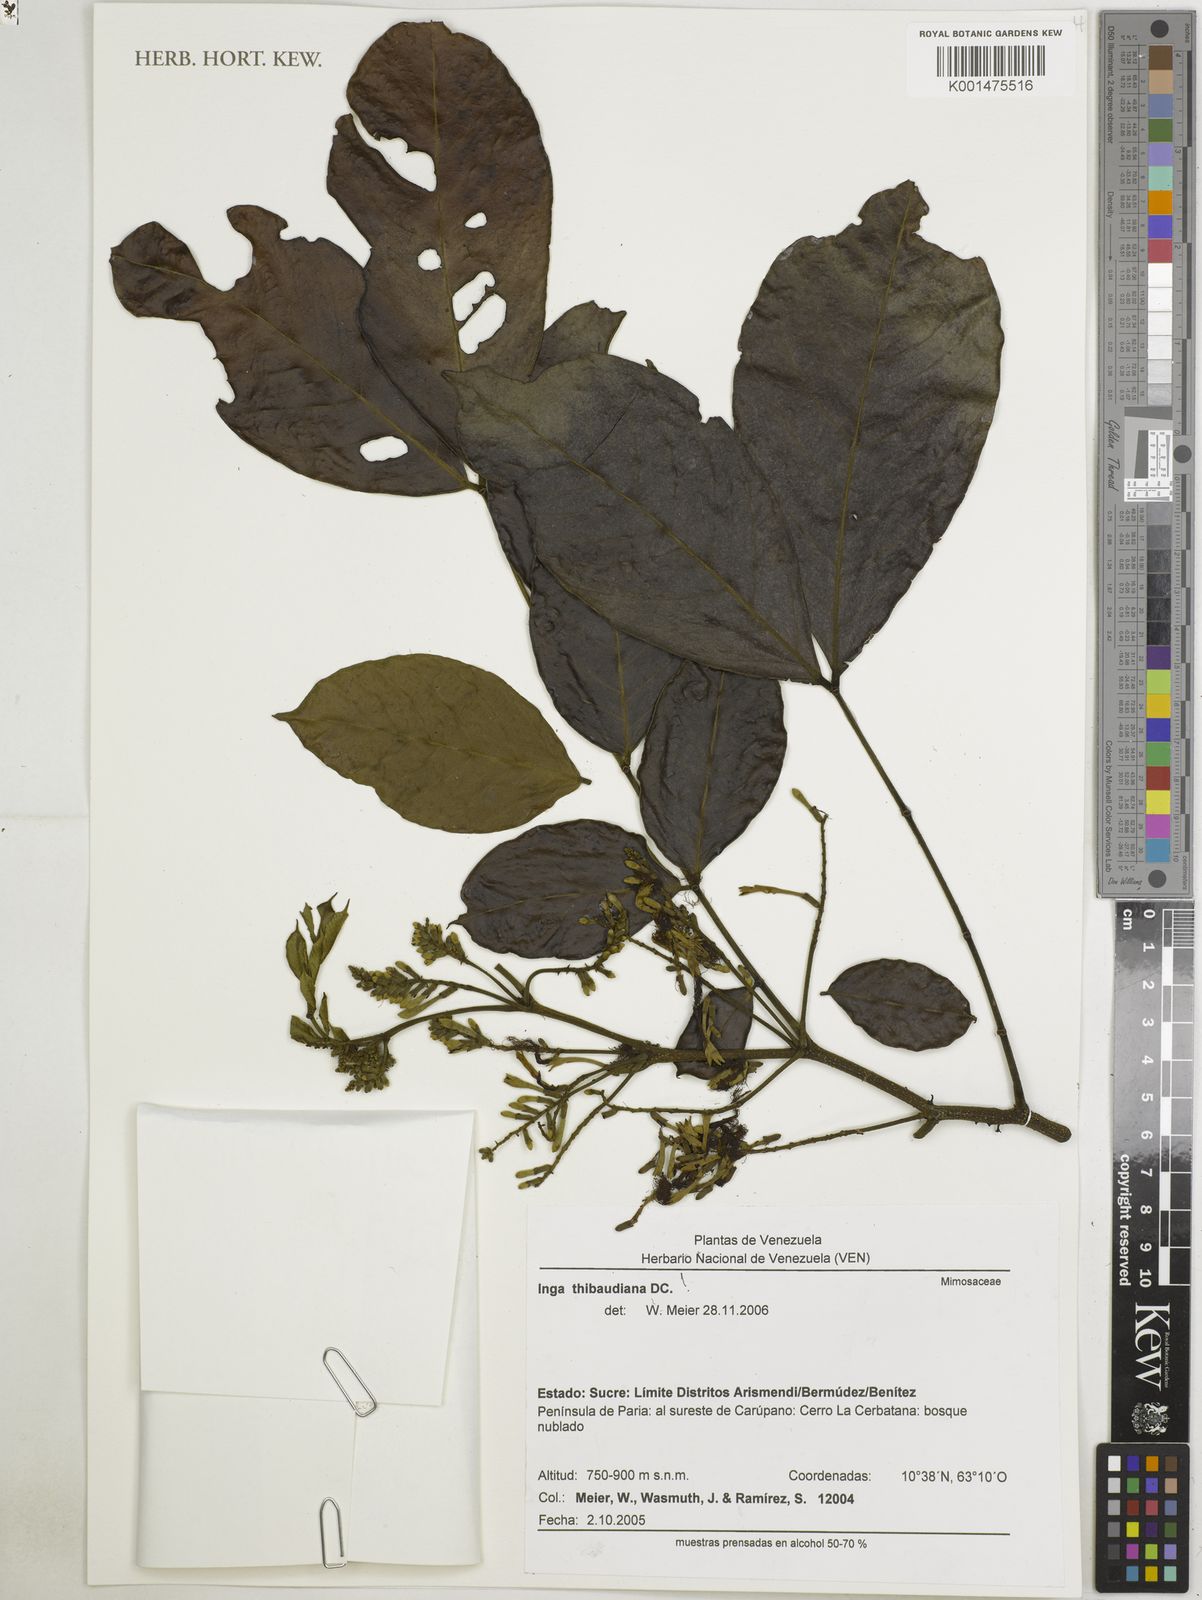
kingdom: Plantae
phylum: Tracheophyta
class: Magnoliopsida
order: Fabales
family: Fabaceae
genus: Inga
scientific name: Inga thibaudiana
